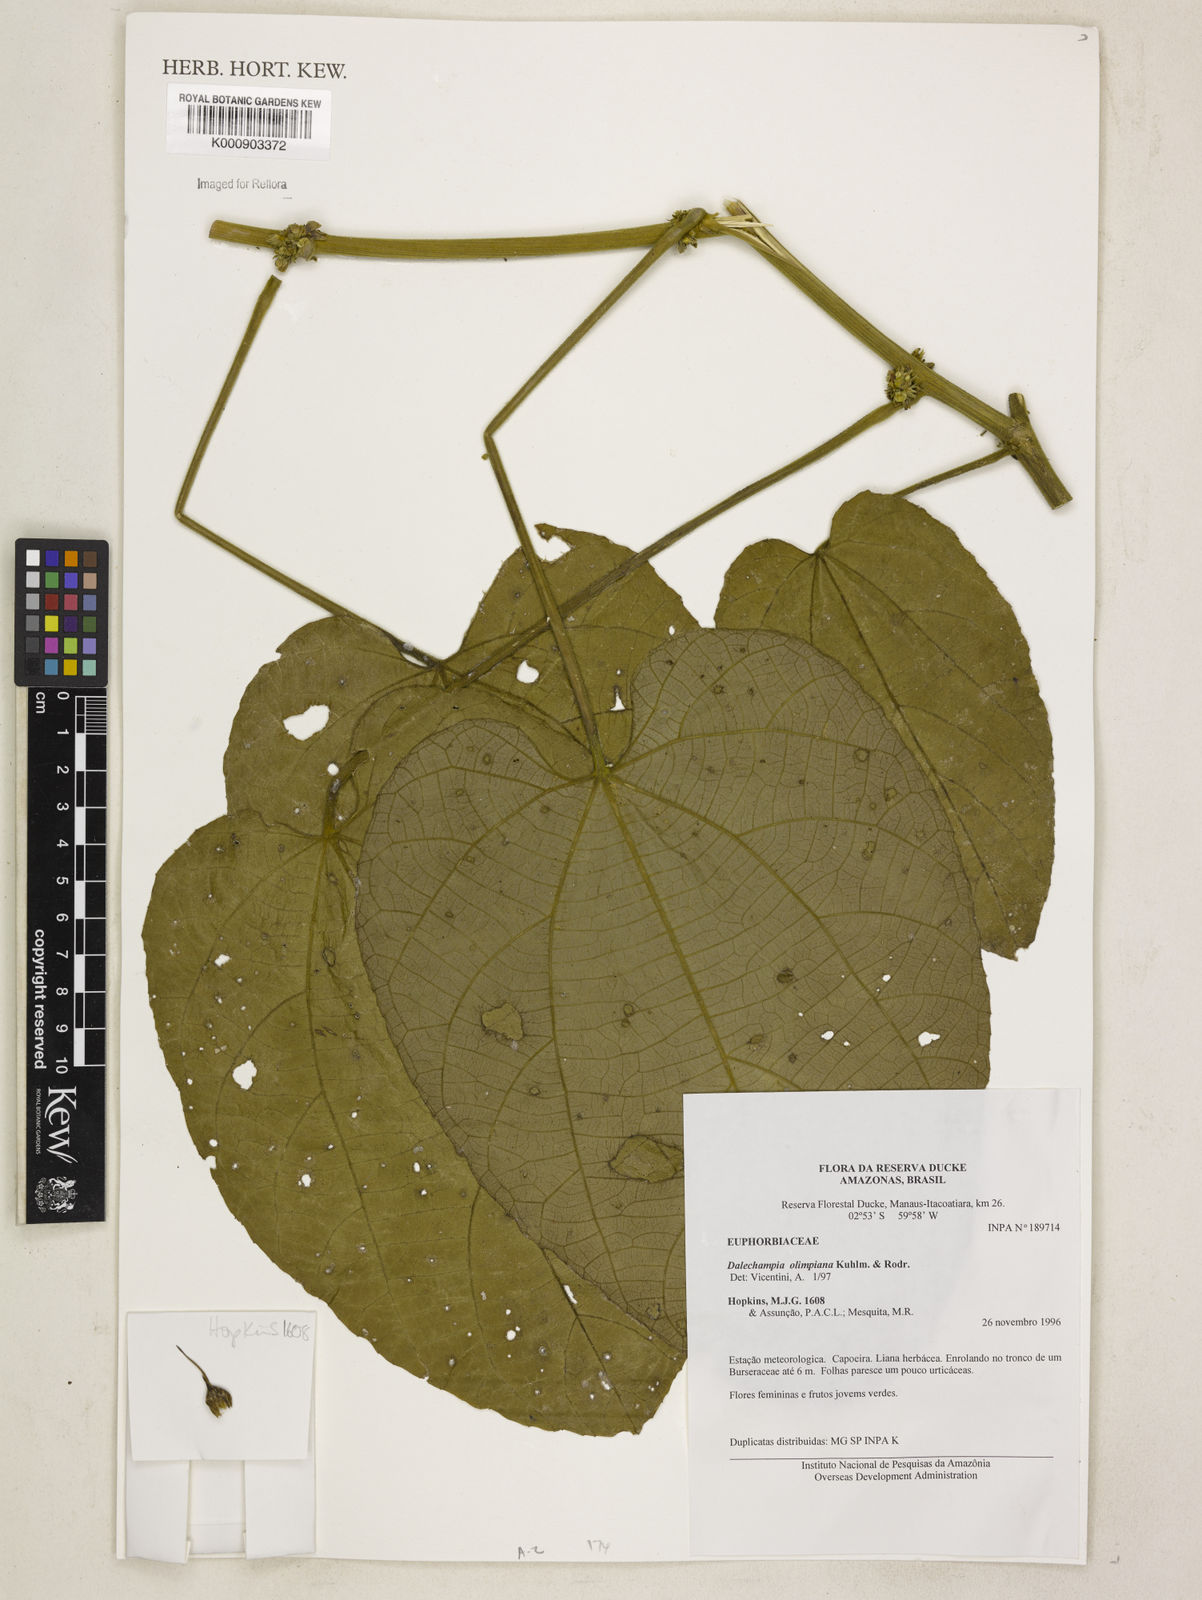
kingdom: Plantae
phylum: Tracheophyta
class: Magnoliopsida
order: Malpighiales
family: Euphorbiaceae
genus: Dalechampia
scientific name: Dalechampia olympiana
